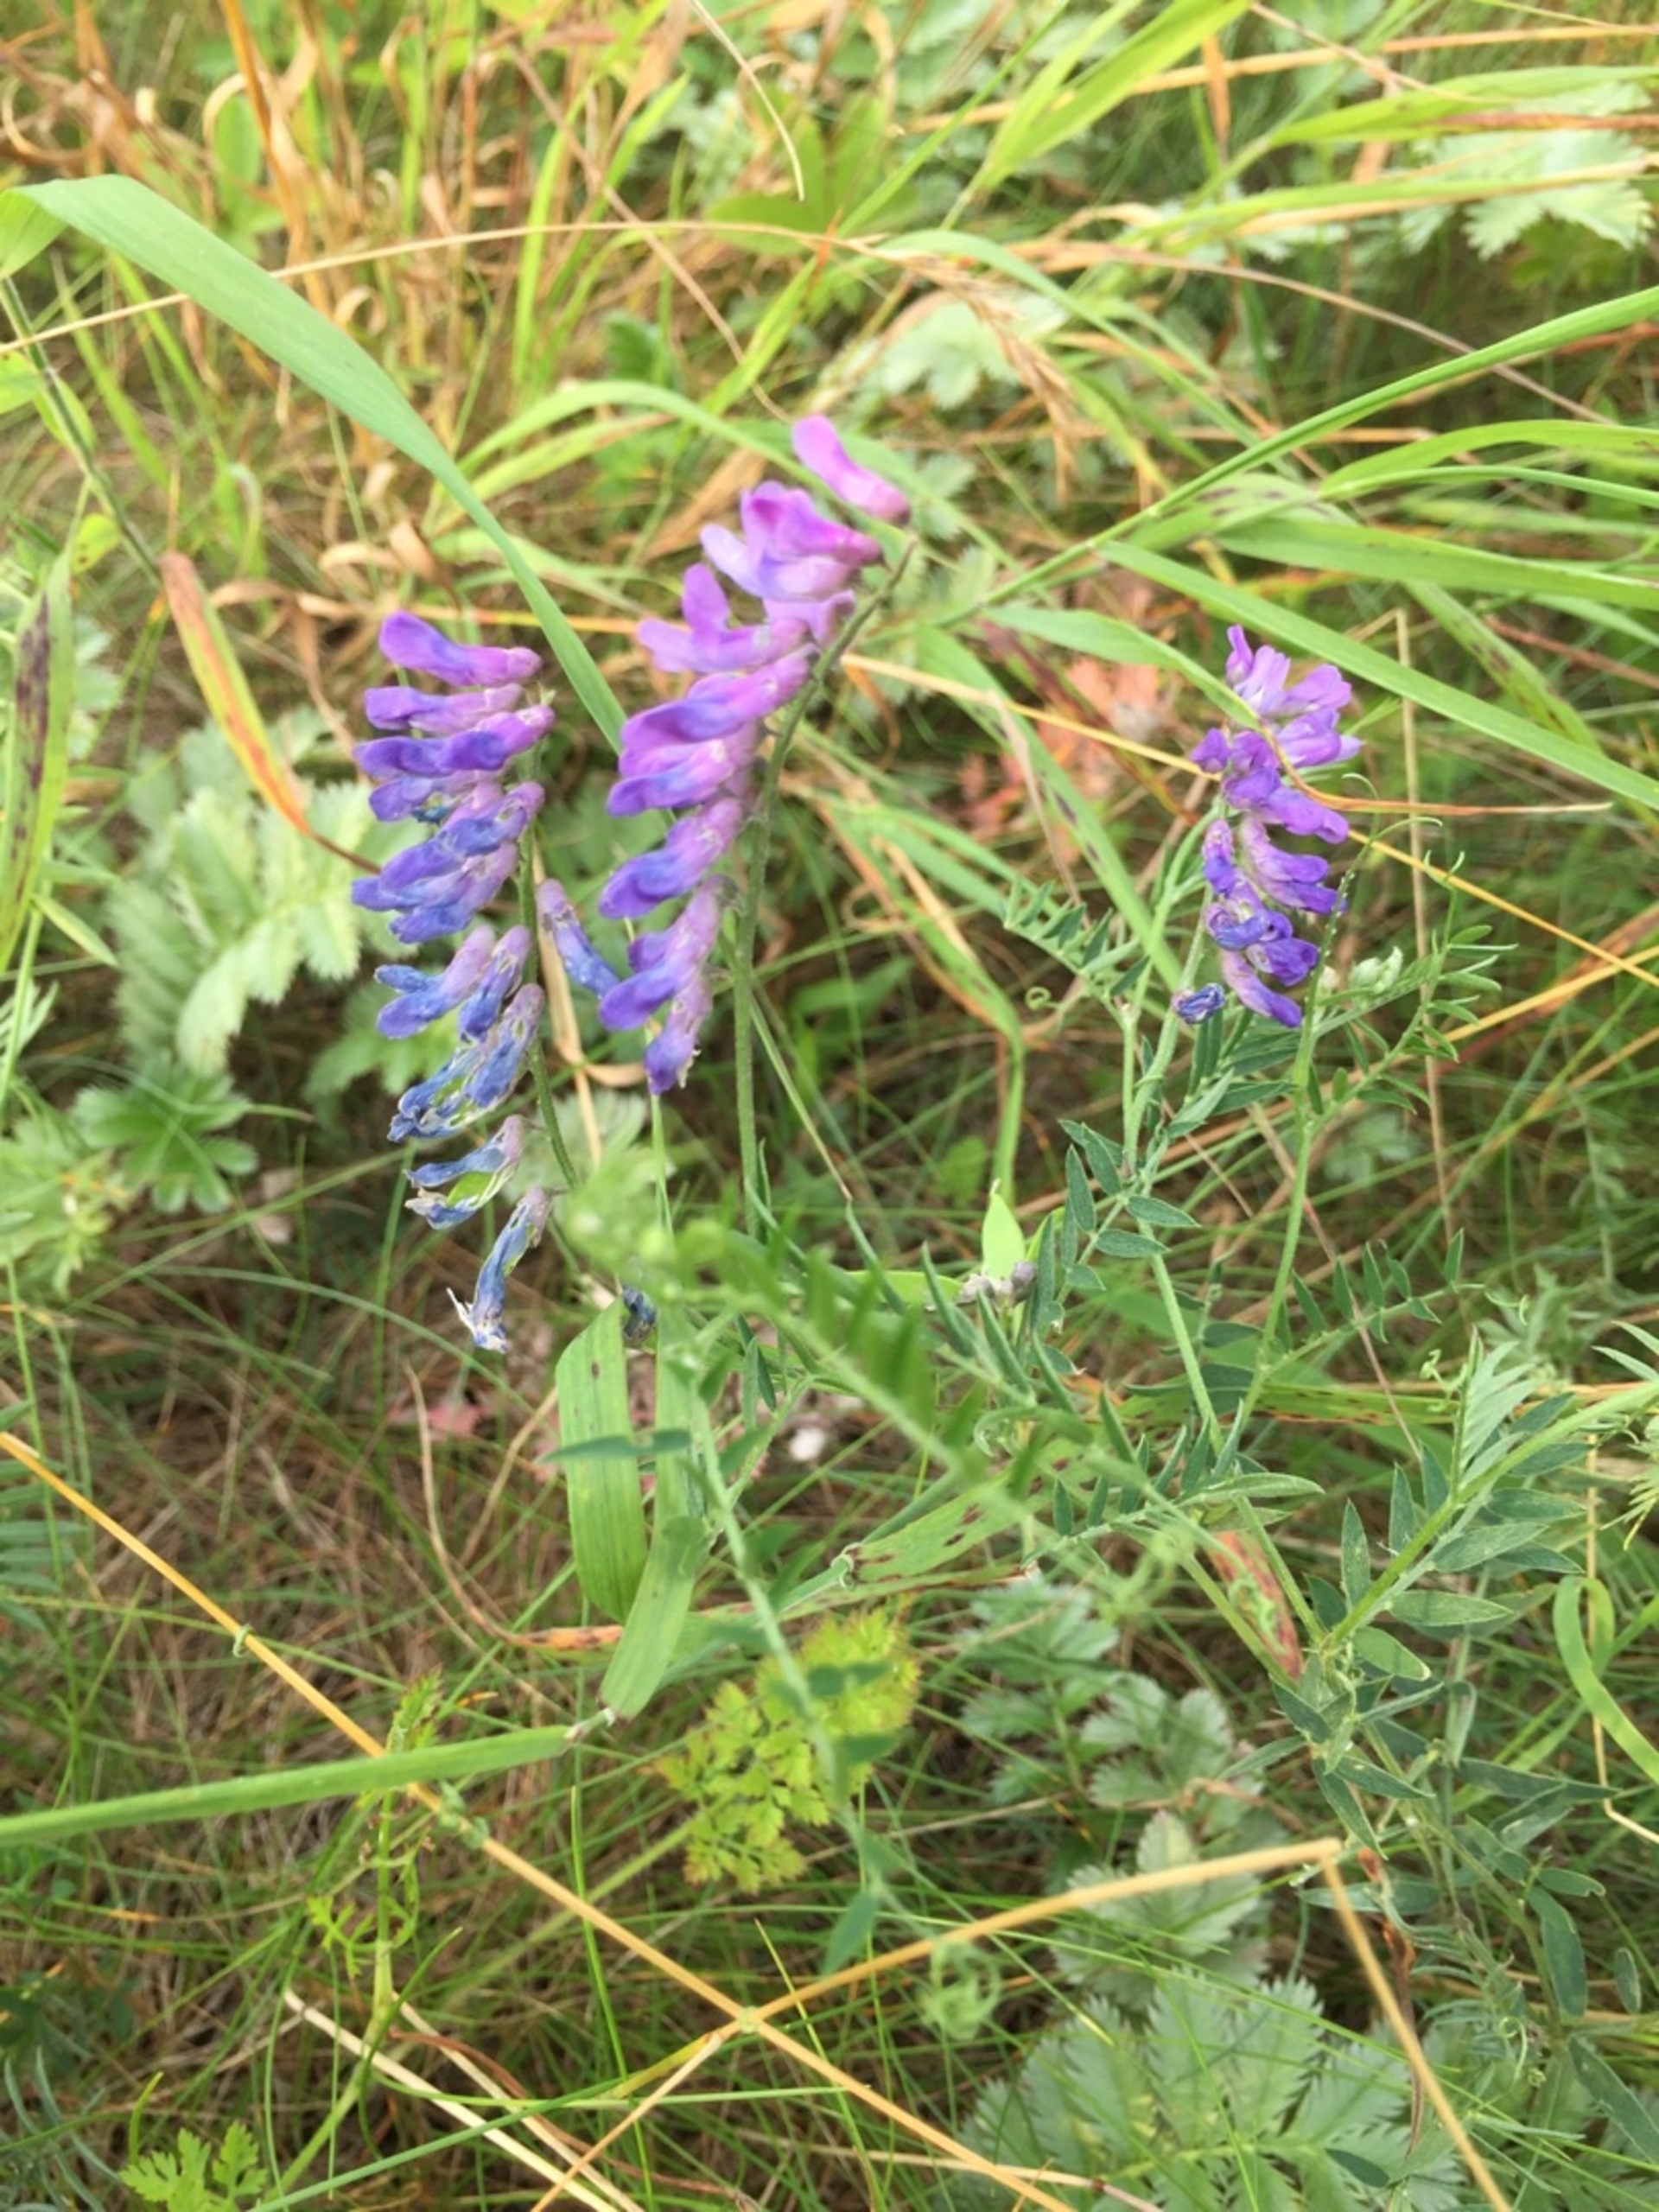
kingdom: Plantae
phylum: Tracheophyta
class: Magnoliopsida
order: Fabales
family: Fabaceae
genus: Vicia
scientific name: Vicia cracca
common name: Muse-vikke
